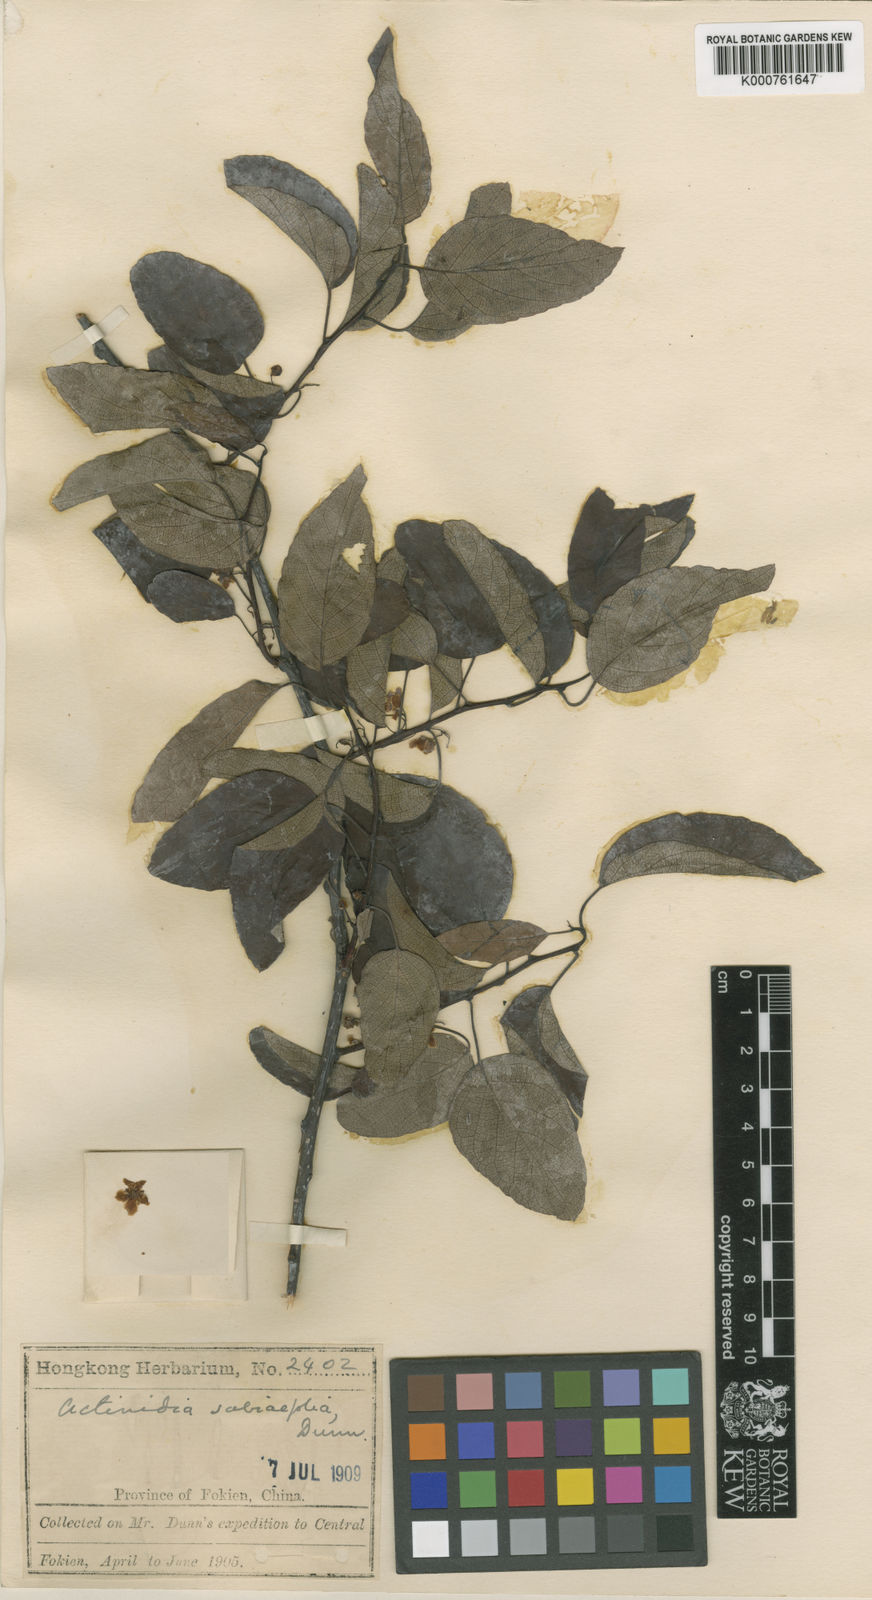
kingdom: Plantae
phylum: Tracheophyta
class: Magnoliopsida
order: Ericales
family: Actinidiaceae
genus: Actinidia
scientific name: Actinidia callosa
